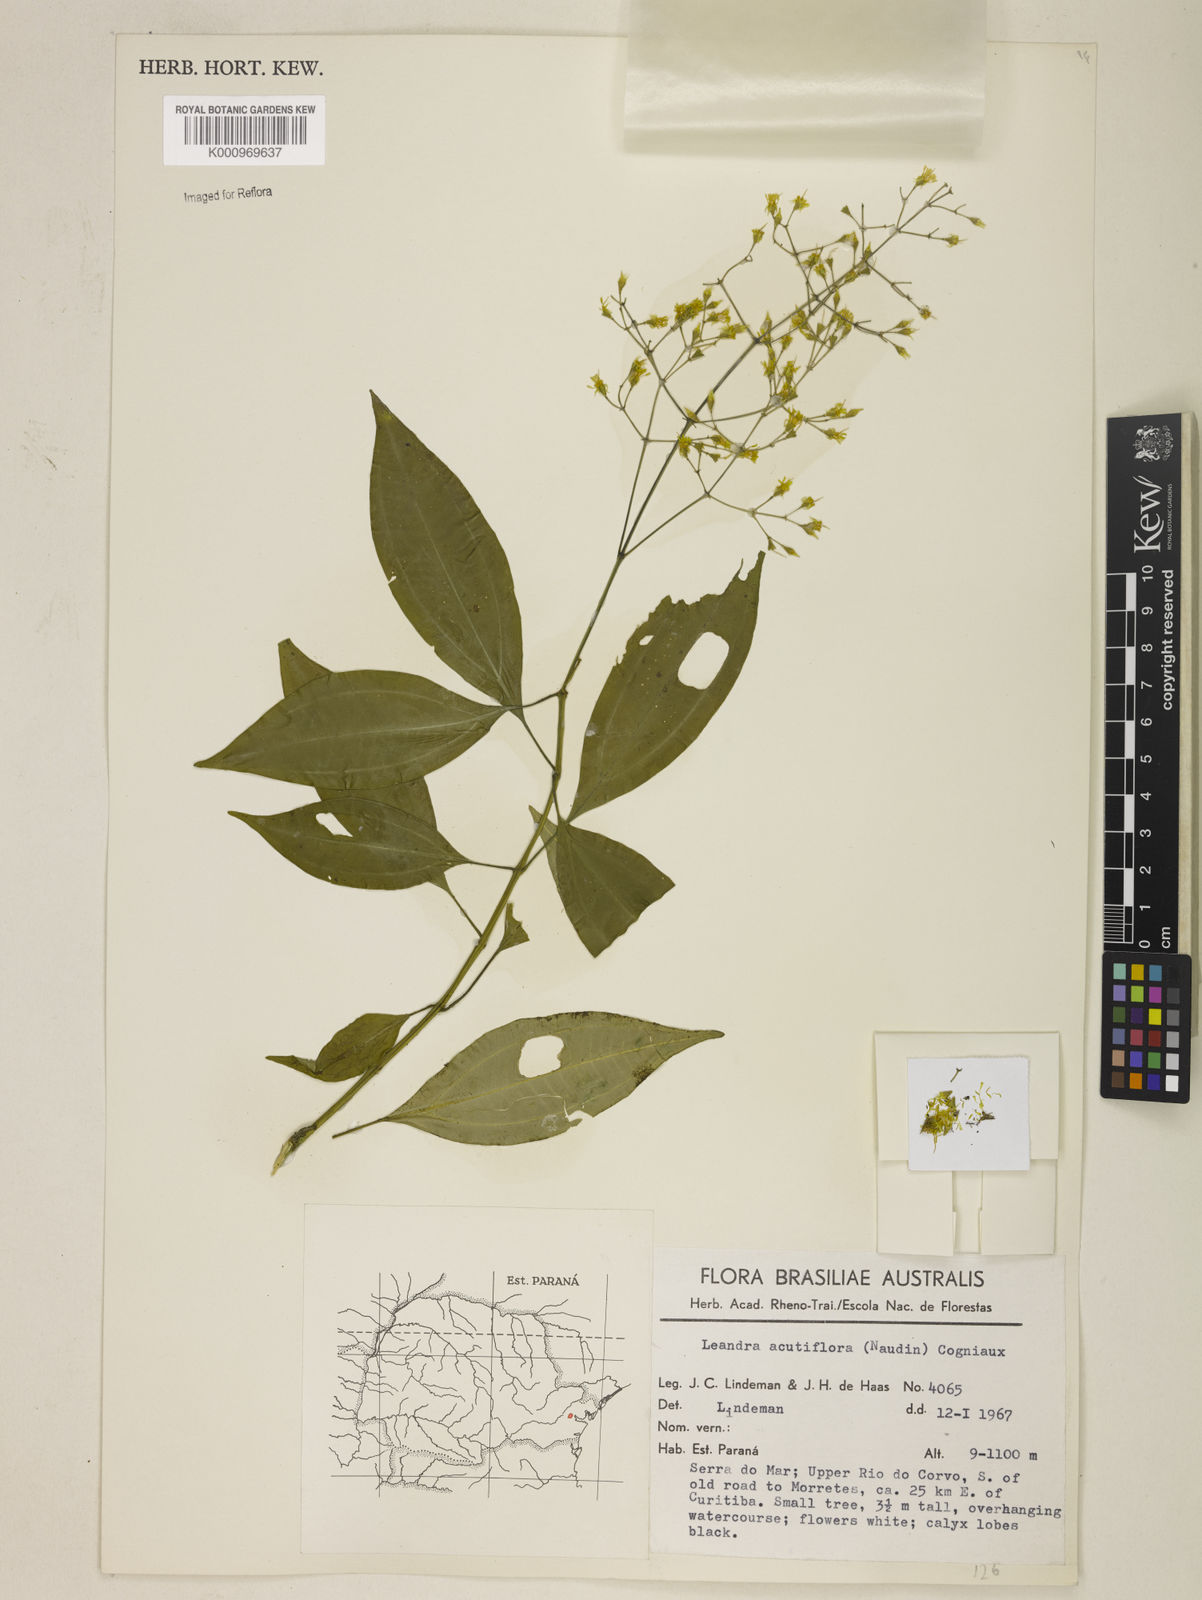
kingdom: Plantae
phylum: Tracheophyta
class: Magnoliopsida
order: Myrtales
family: Melastomataceae
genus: Miconia
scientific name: Miconia acutiflora
